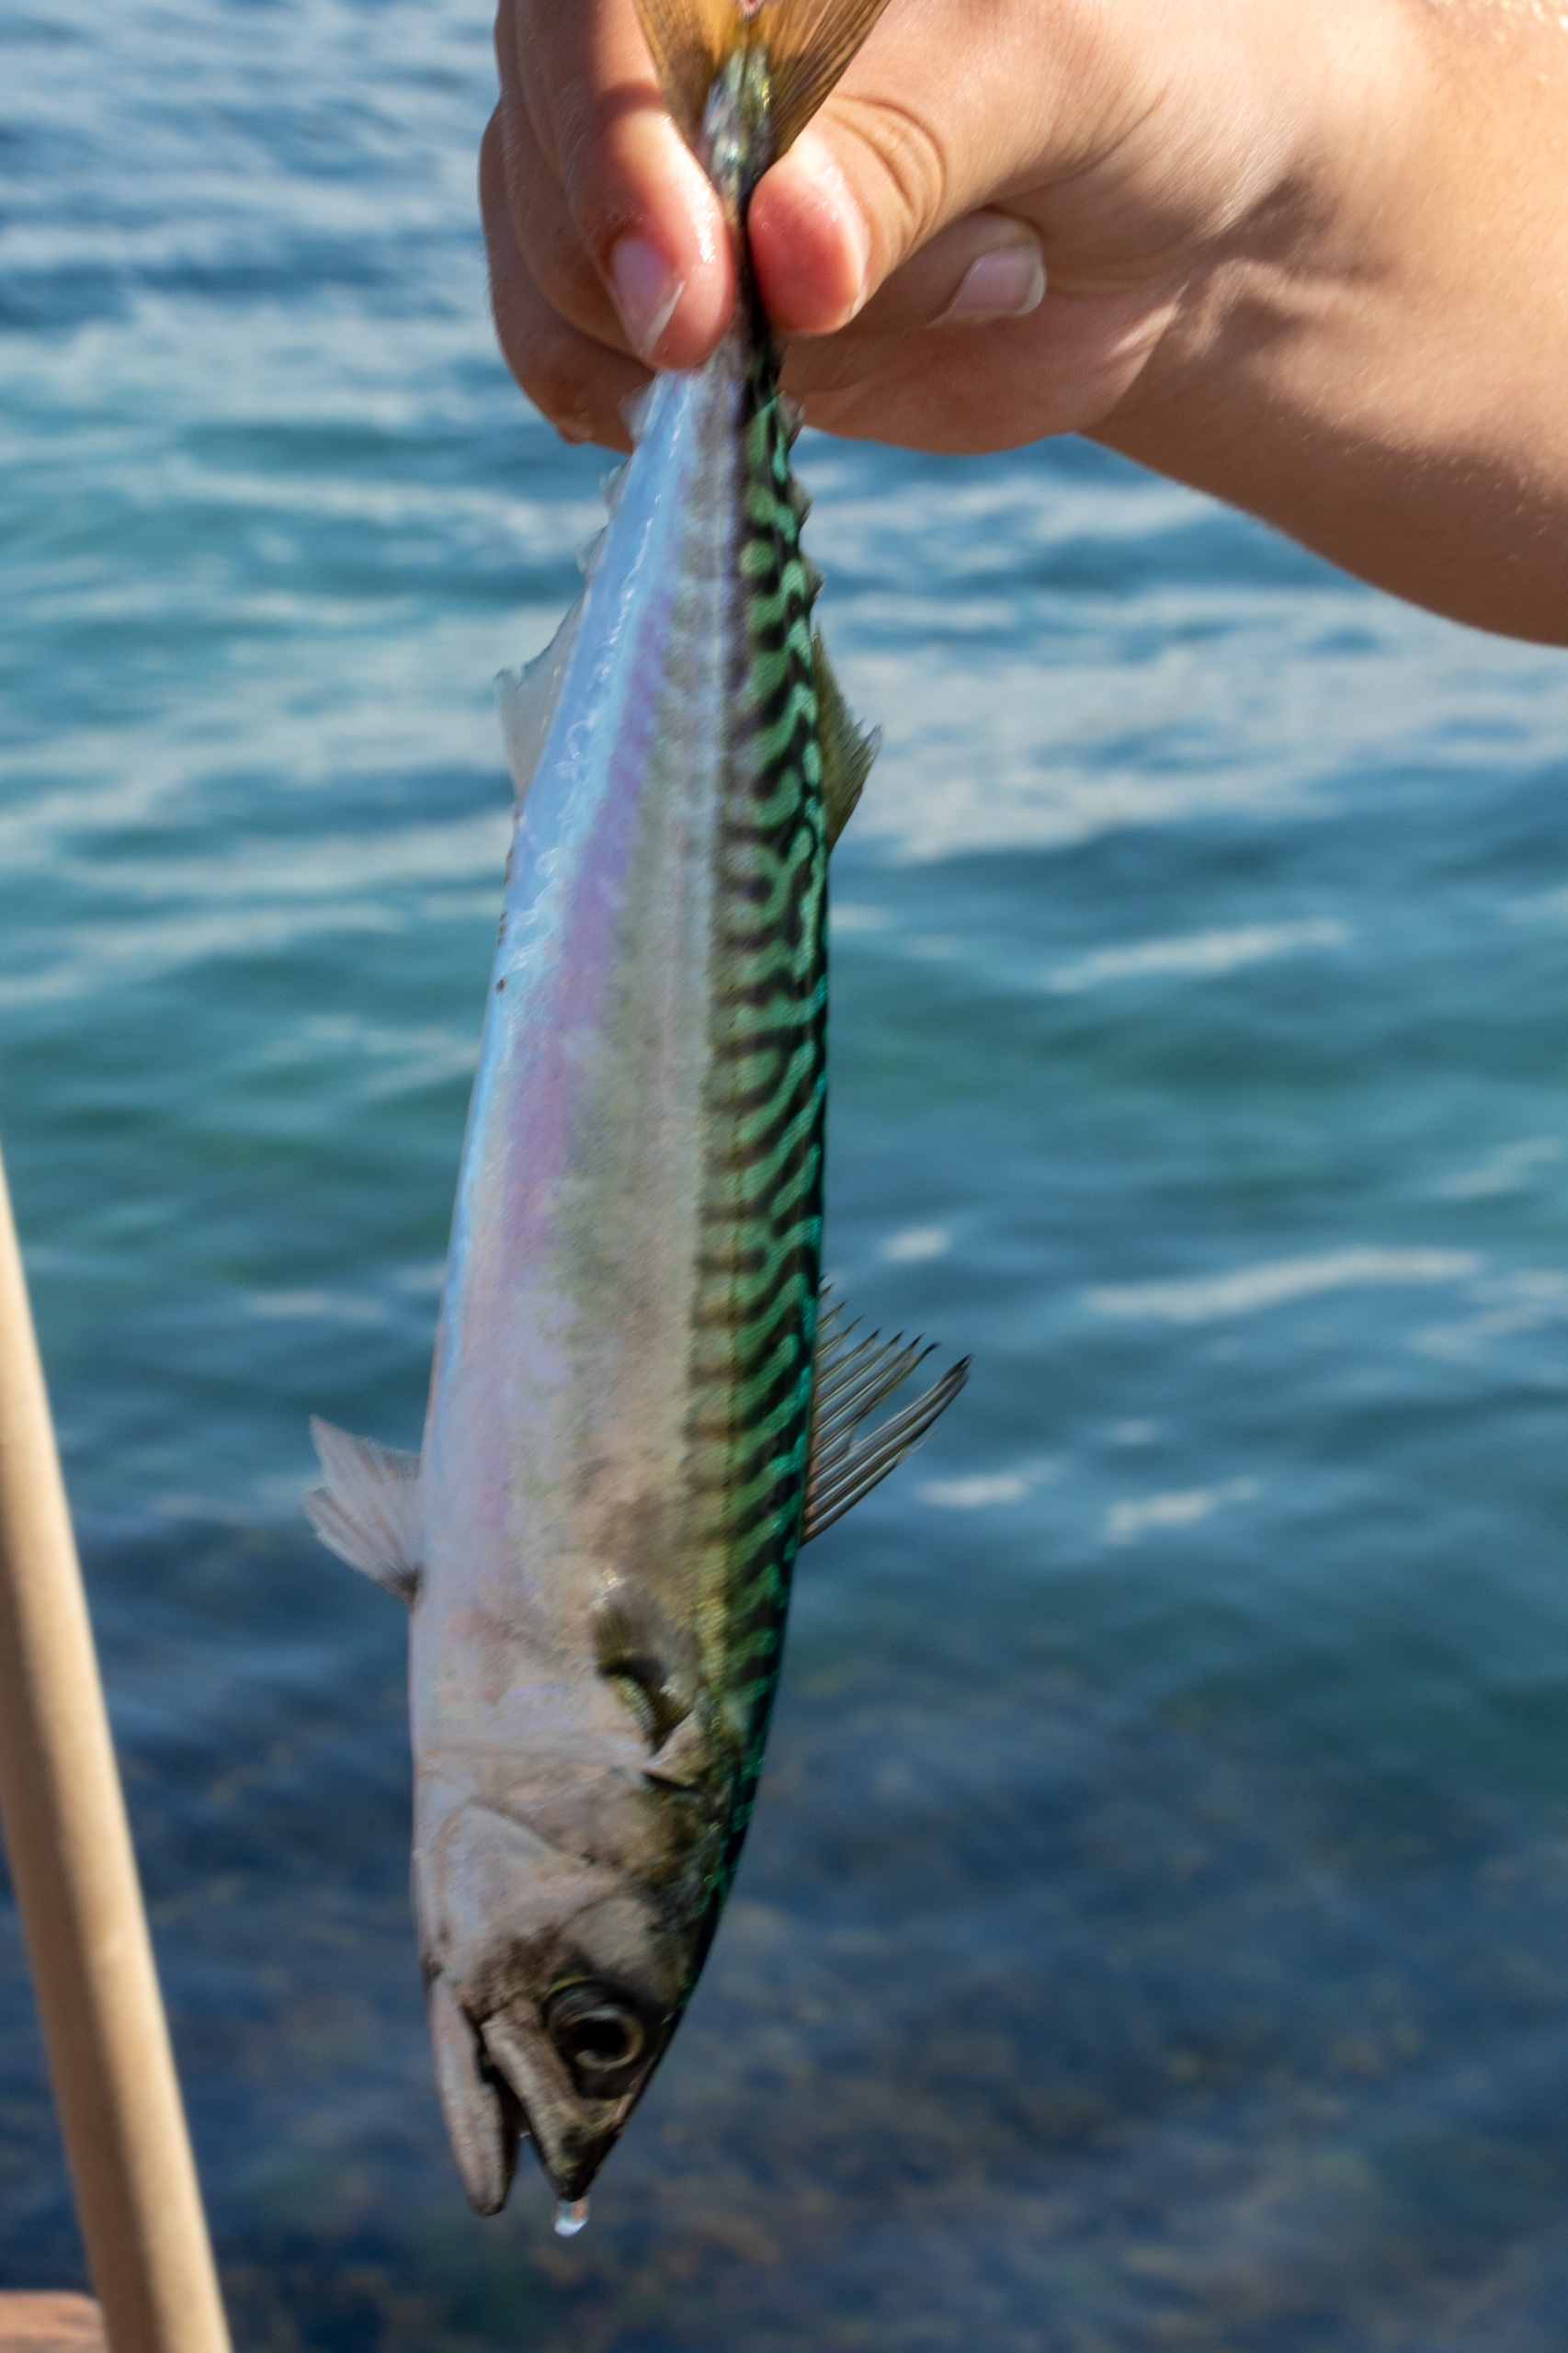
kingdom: Animalia
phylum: Chordata
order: Perciformes
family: Scombridae
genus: Scomber
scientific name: Scomber scombrus
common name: Makrel
